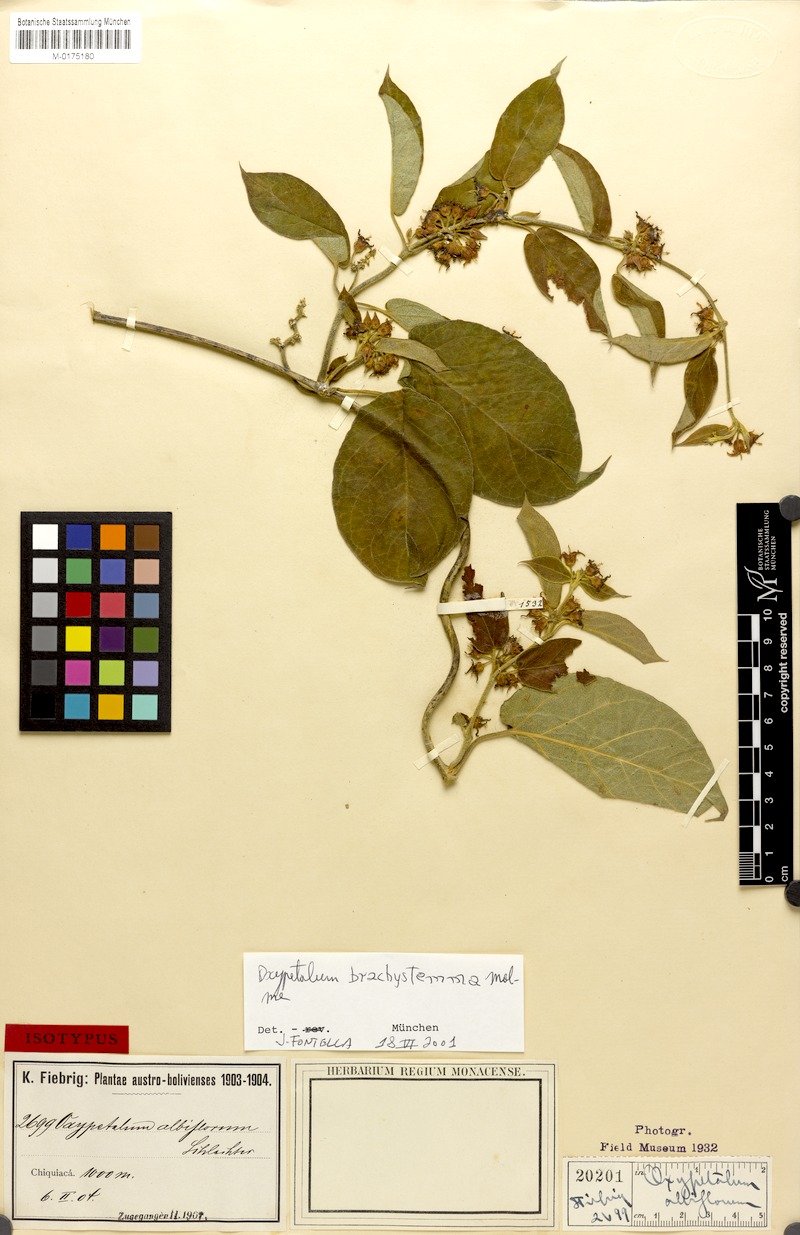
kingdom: Plantae
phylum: Tracheophyta
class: Magnoliopsida
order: Gentianales
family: Apocynaceae
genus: Oxypetalum
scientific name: Oxypetalum brachystemma
